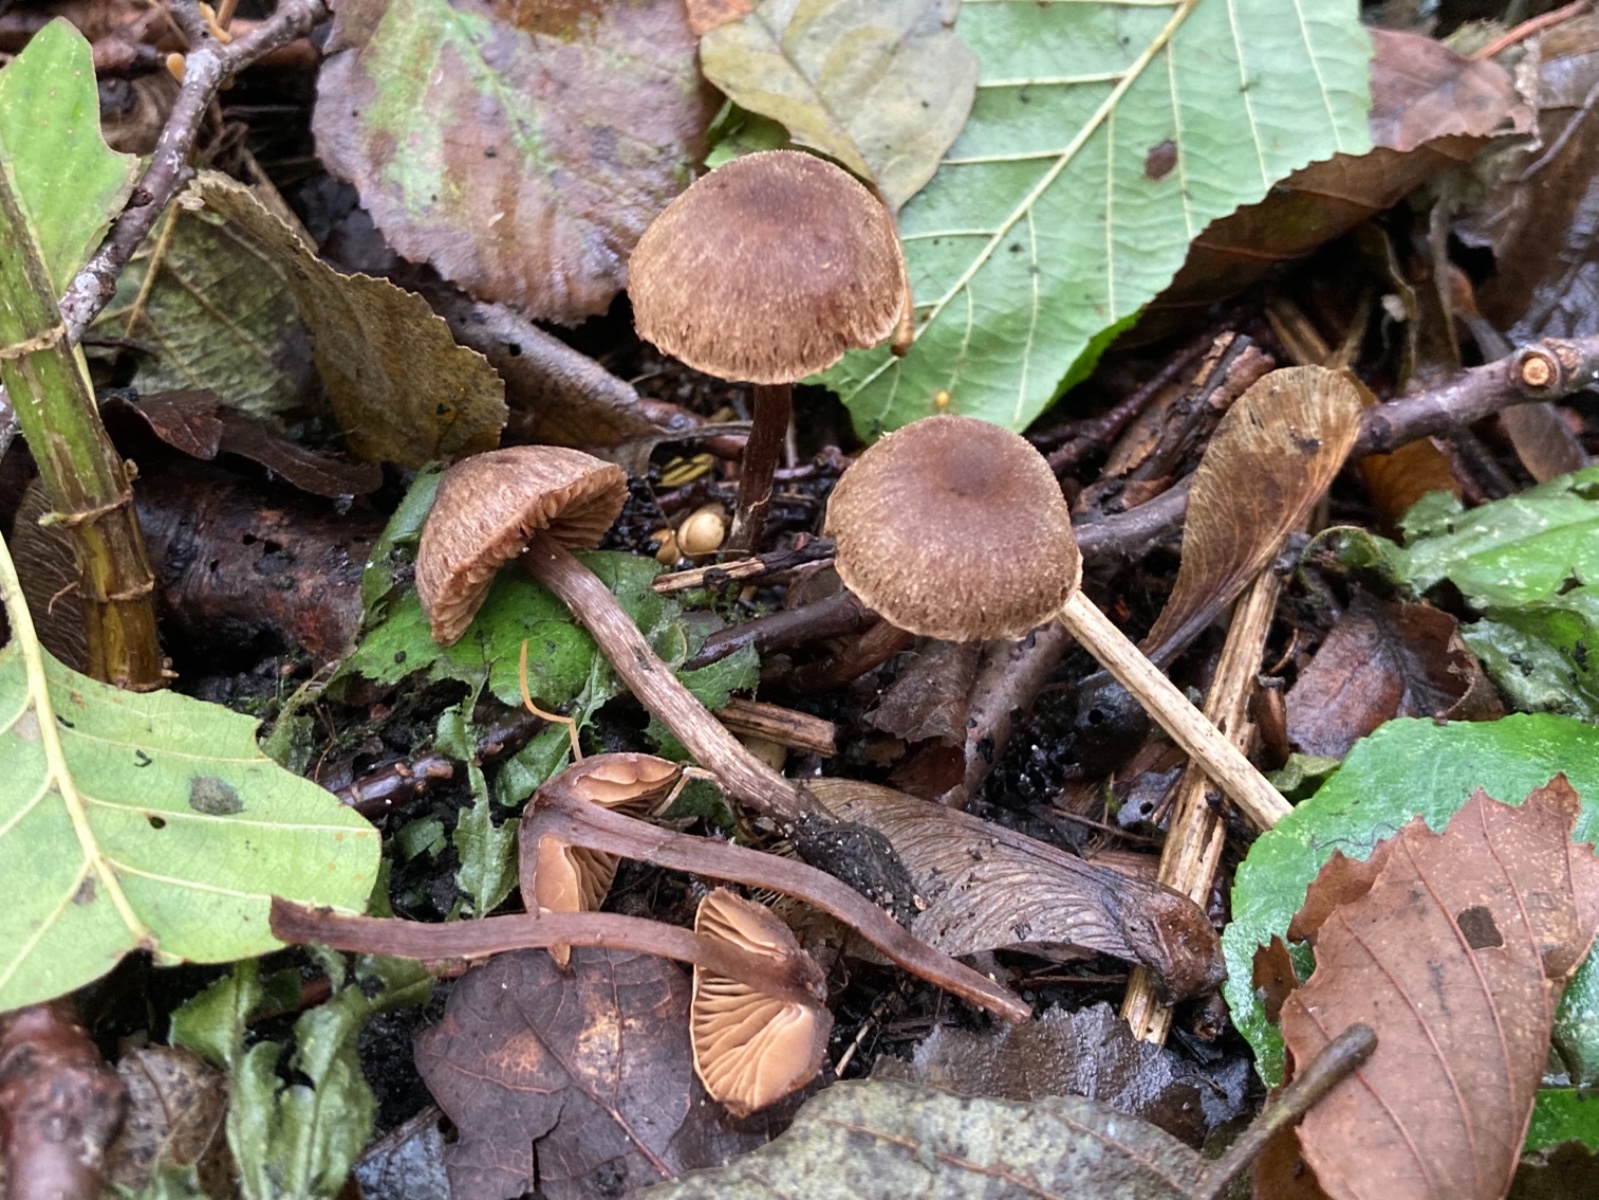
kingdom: Fungi
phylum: Basidiomycota
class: Agaricomycetes
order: Agaricales
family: Cortinariaceae
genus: Cortinarius
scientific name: Cortinarius griseocarneus
